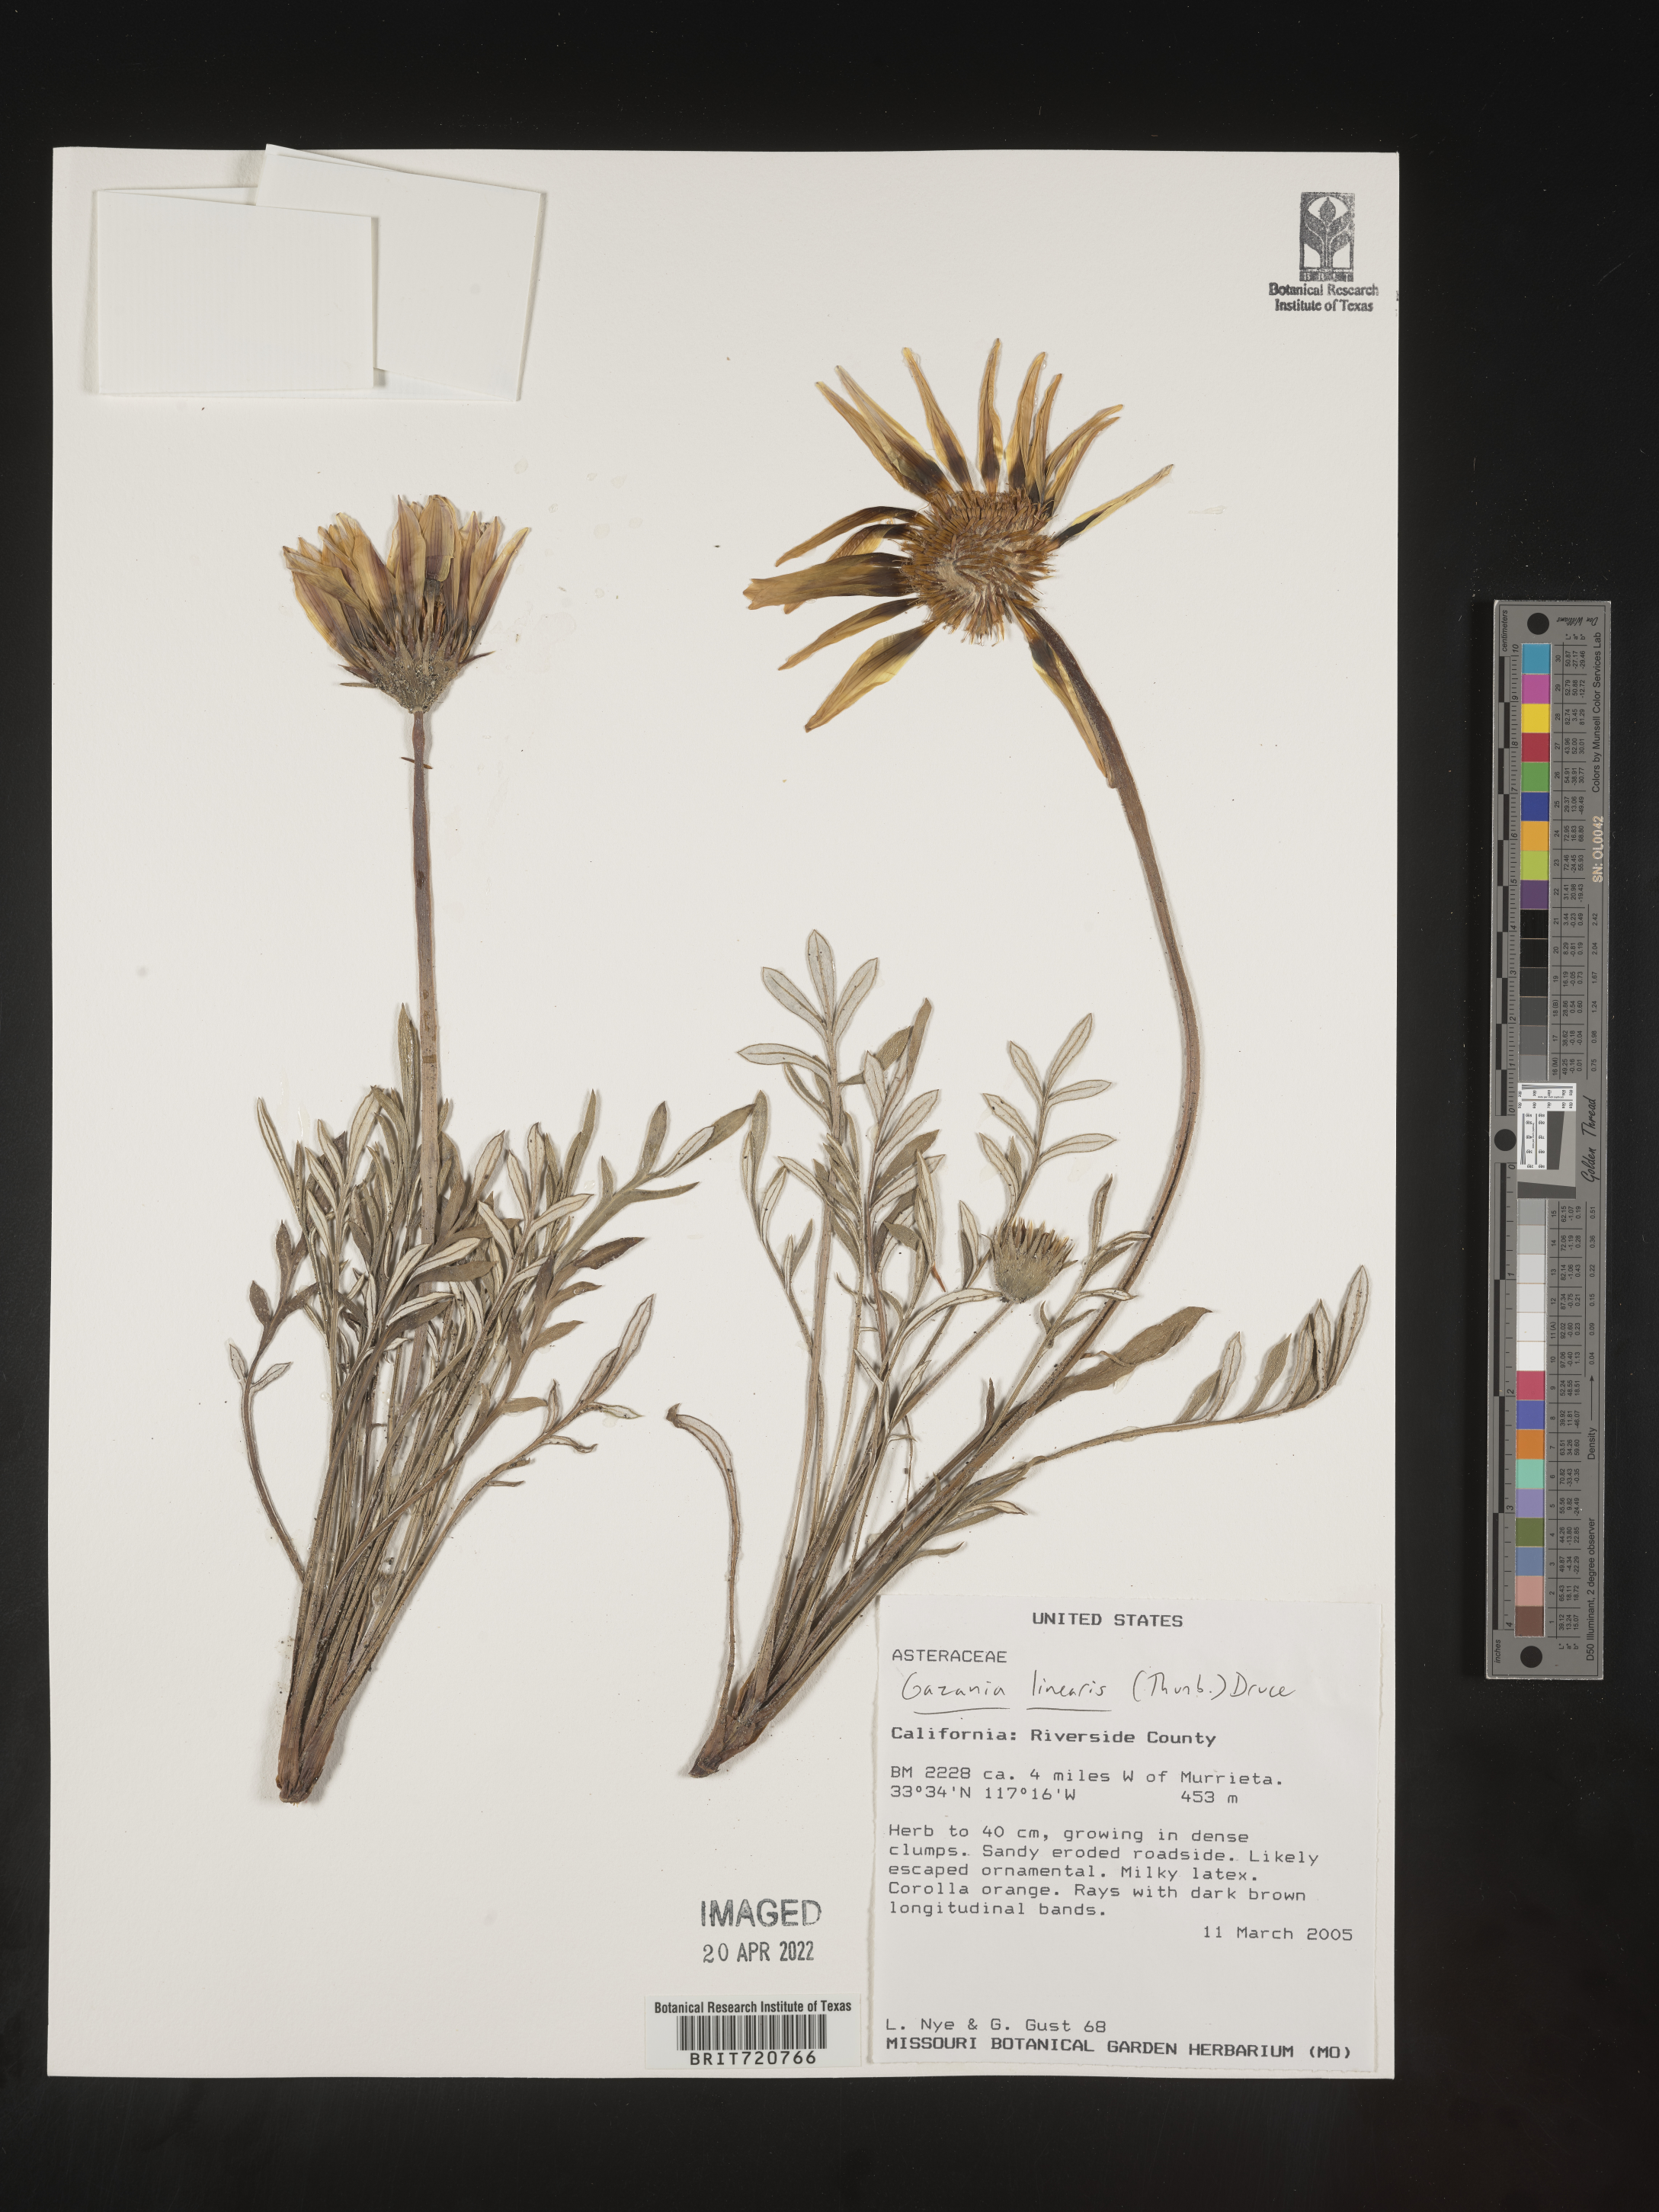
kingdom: Plantae
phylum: Tracheophyta
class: Magnoliopsida
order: Asterales
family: Asteraceae
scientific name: Asteraceae
